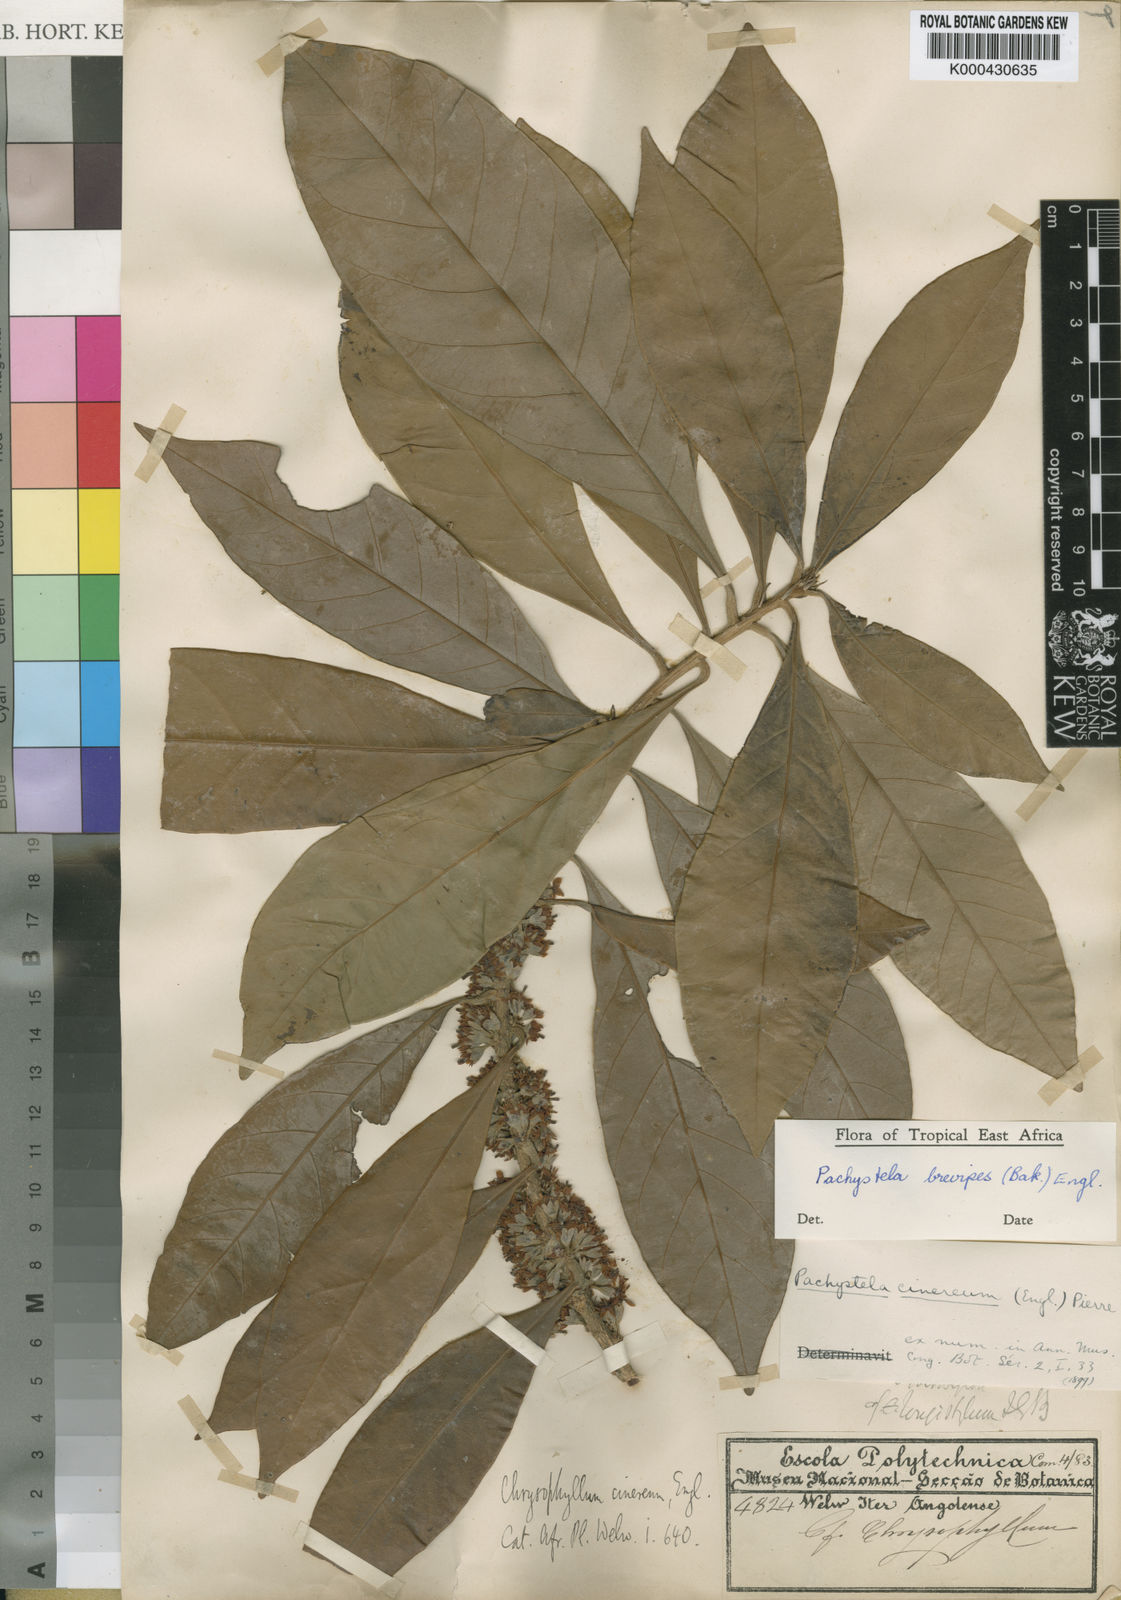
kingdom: Plantae
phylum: Tracheophyta
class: Magnoliopsida
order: Ericales
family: Sapotaceae
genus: Synsepalum
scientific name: Synsepalum brevipes
